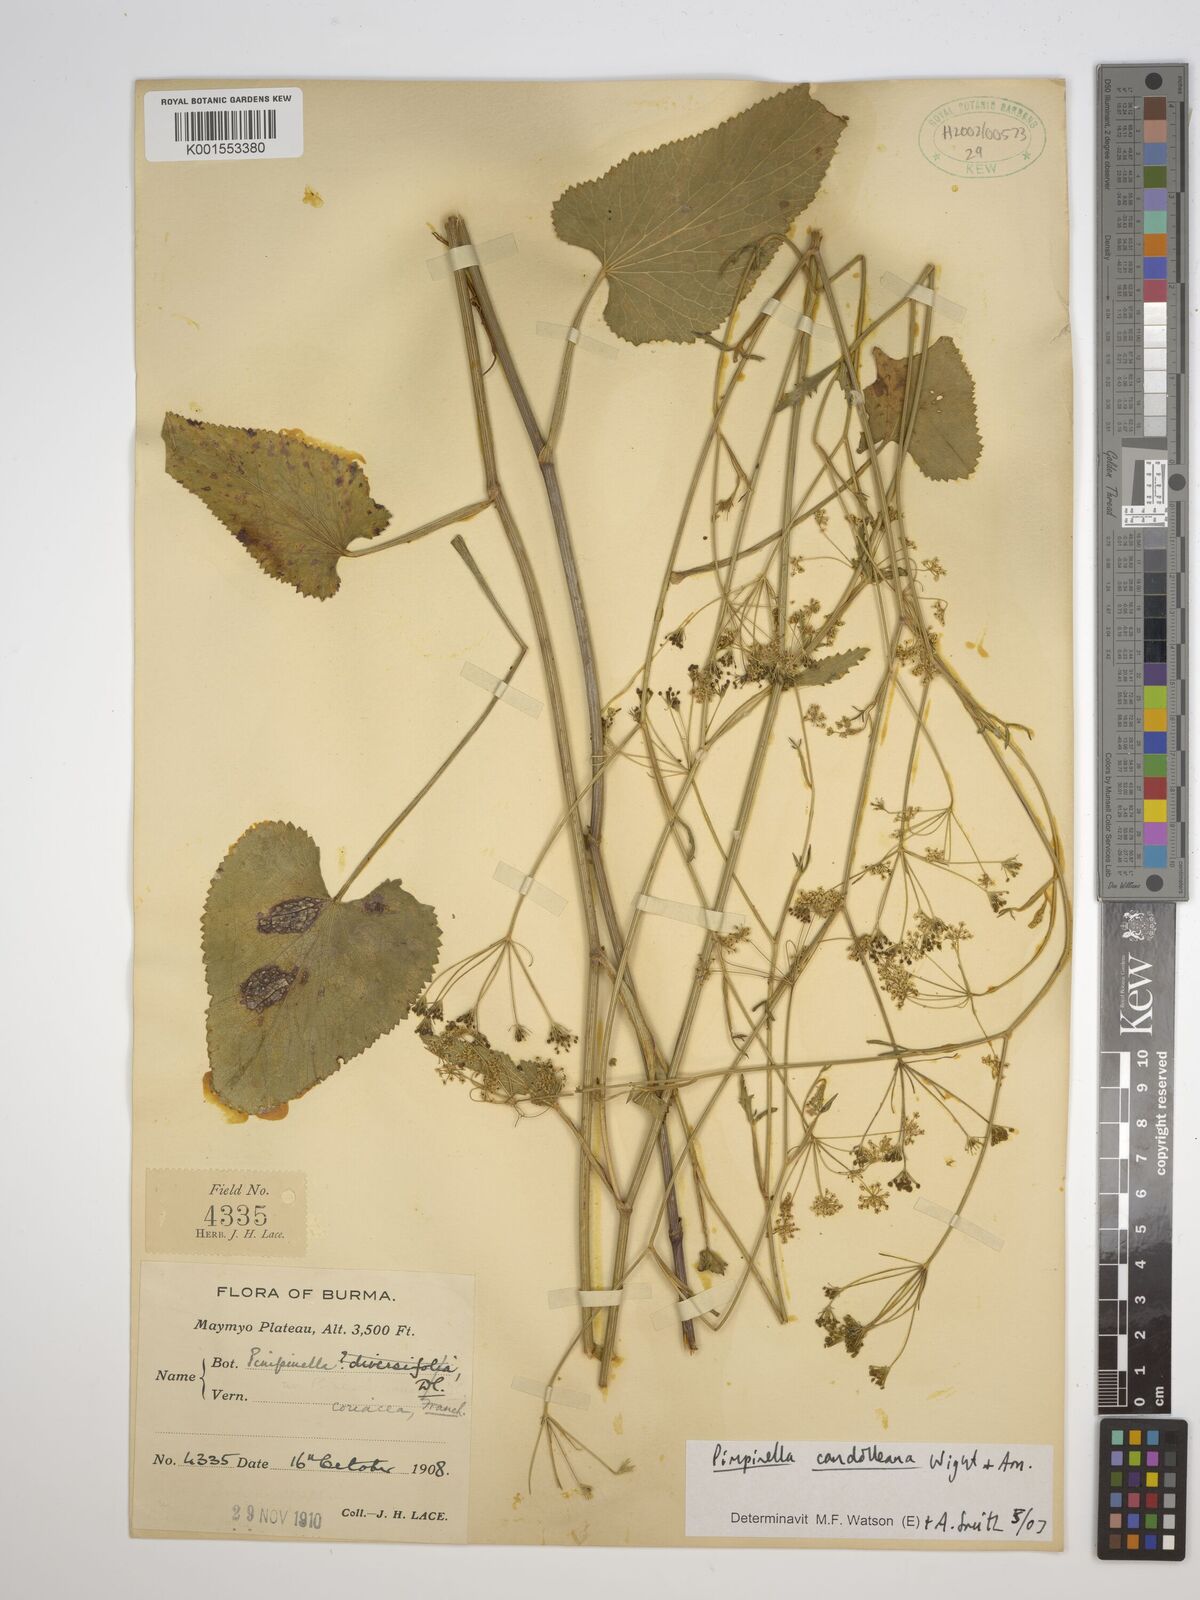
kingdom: Plantae
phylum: Tracheophyta
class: Magnoliopsida
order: Apiales
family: Apiaceae
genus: Pimpinella
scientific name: Pimpinella candolleana
